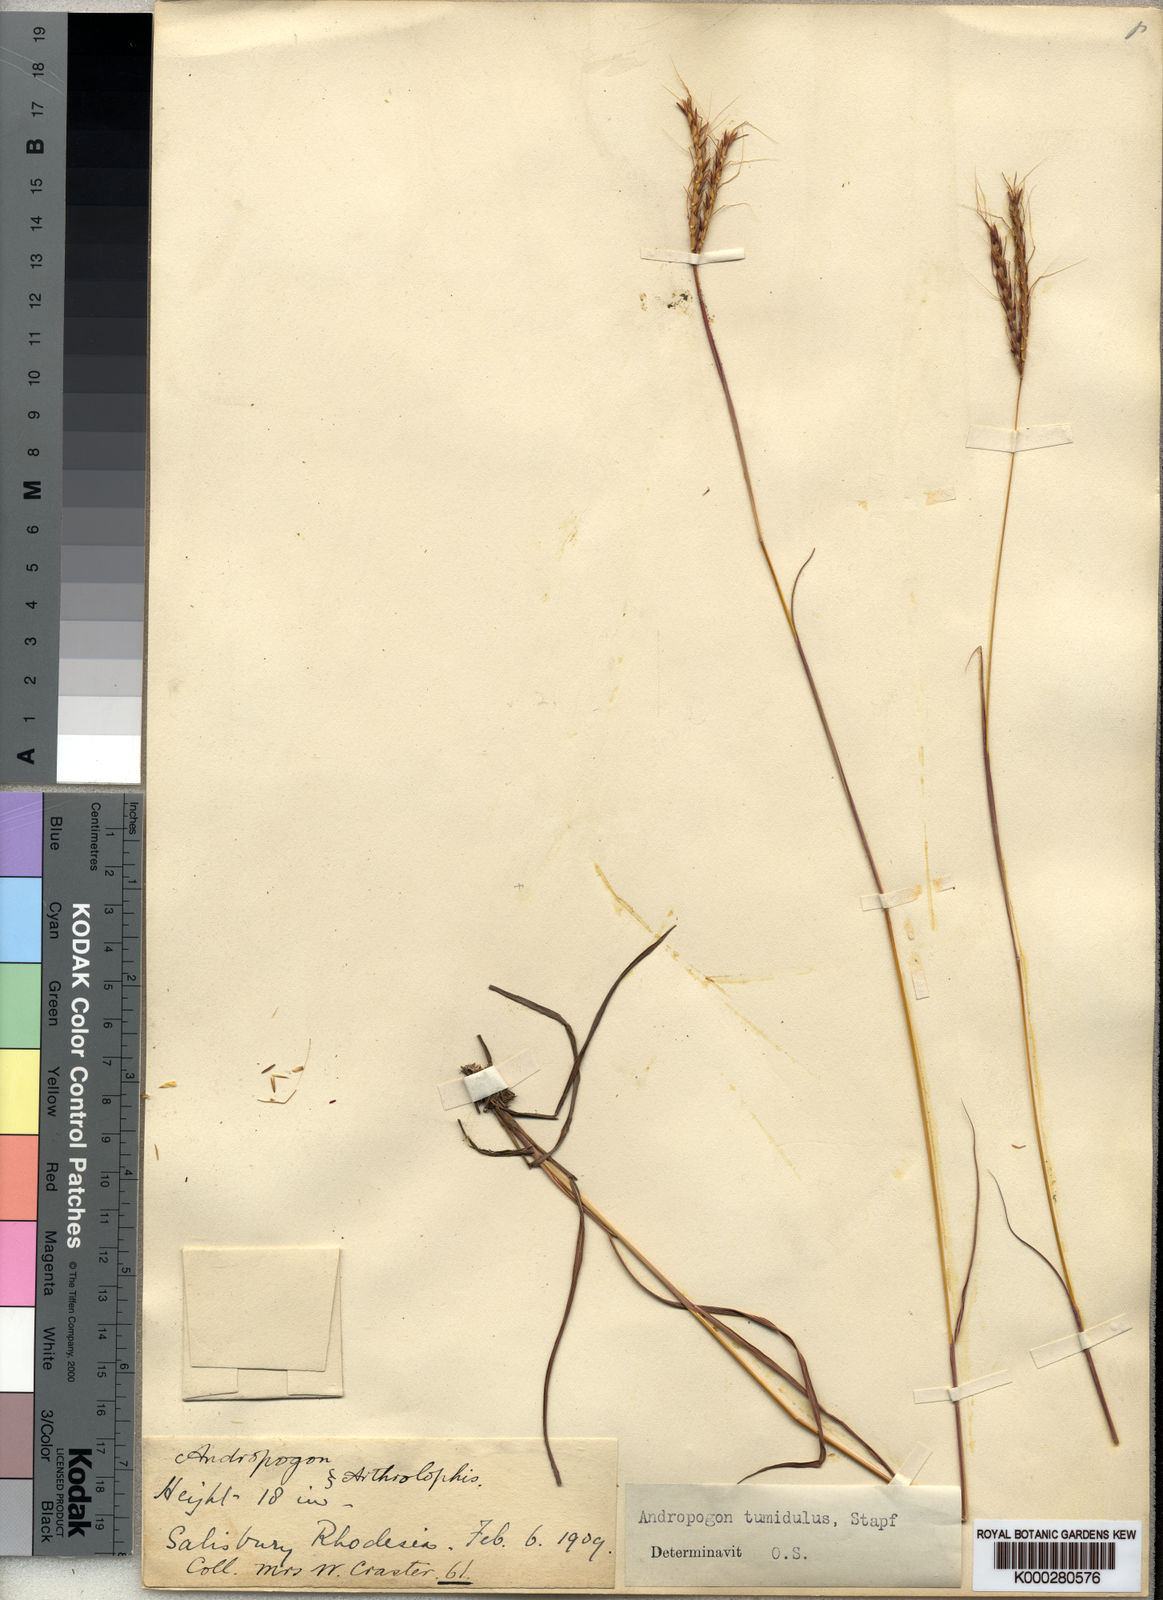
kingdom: Plantae
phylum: Tracheophyta
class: Liliopsida
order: Poales
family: Poaceae
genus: Andropogon
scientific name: Andropogon perligulatus
